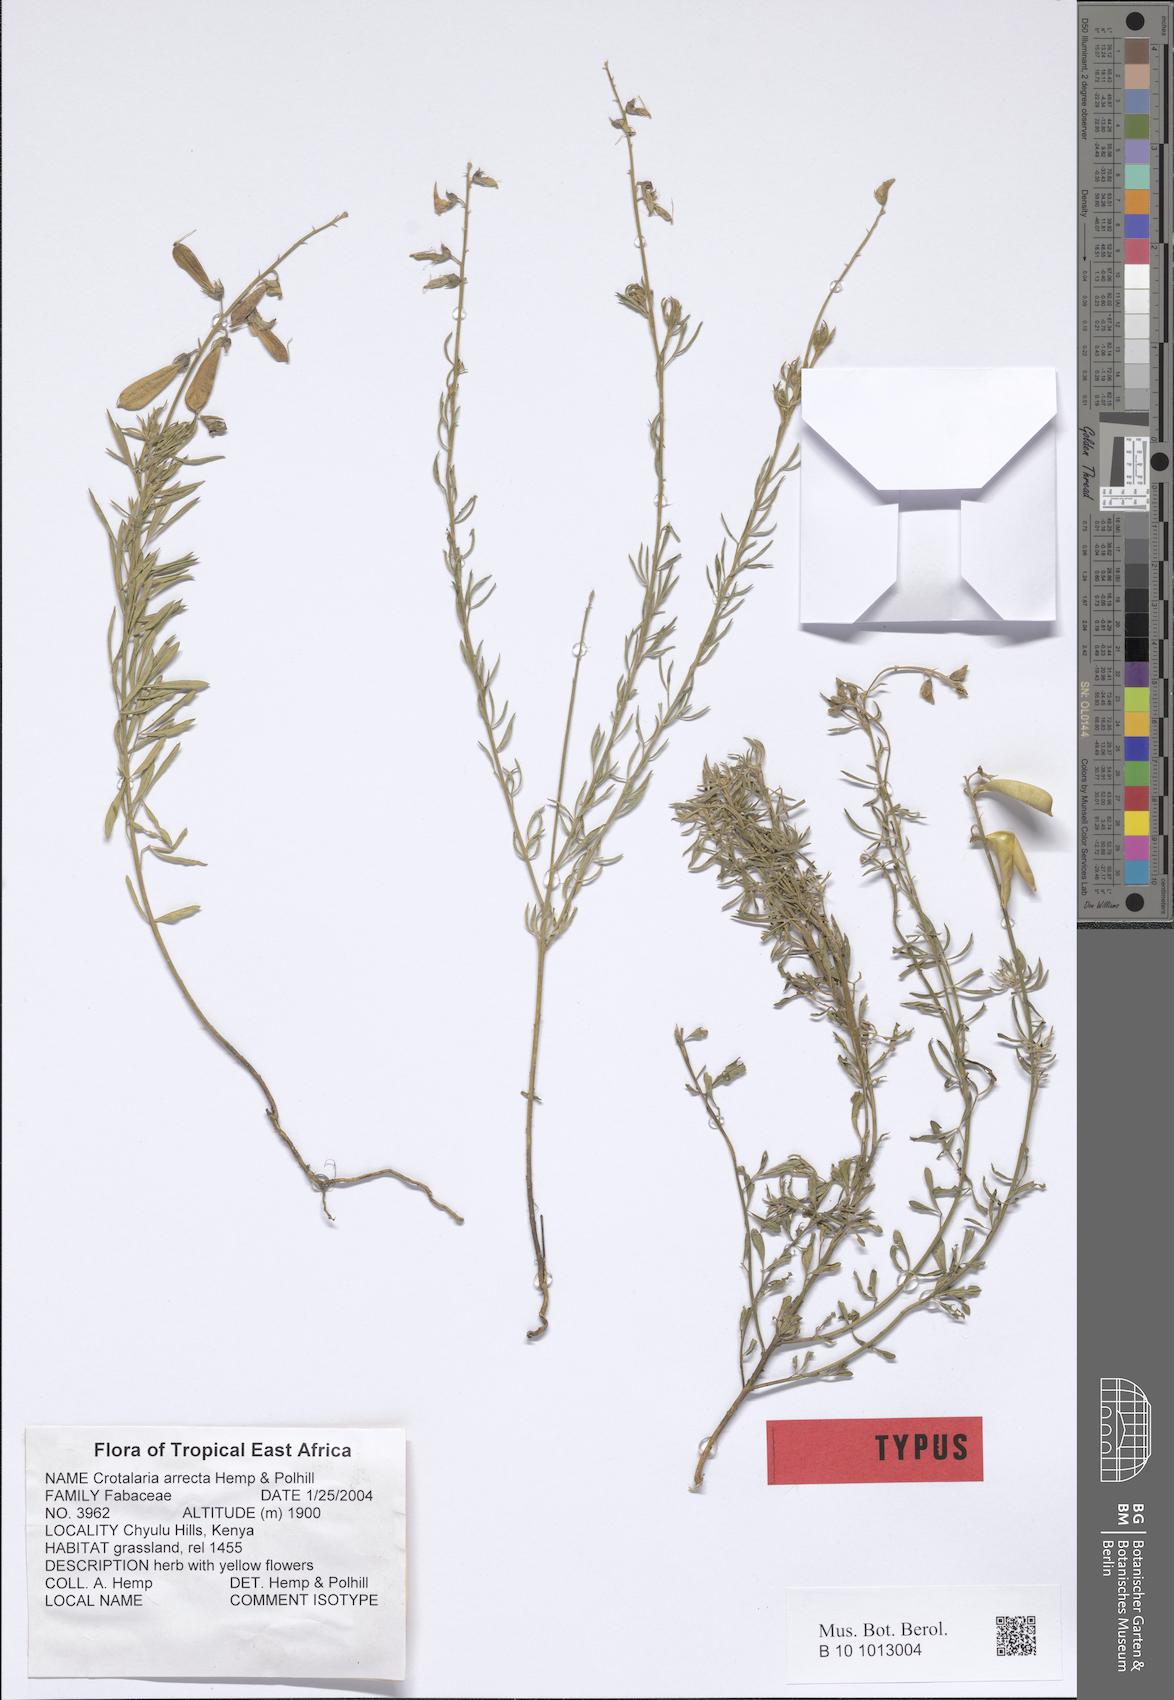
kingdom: Plantae
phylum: Tracheophyta
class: Magnoliopsida
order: Fabales
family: Fabaceae
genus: Crotalaria
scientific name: Crotalaria arrecta
